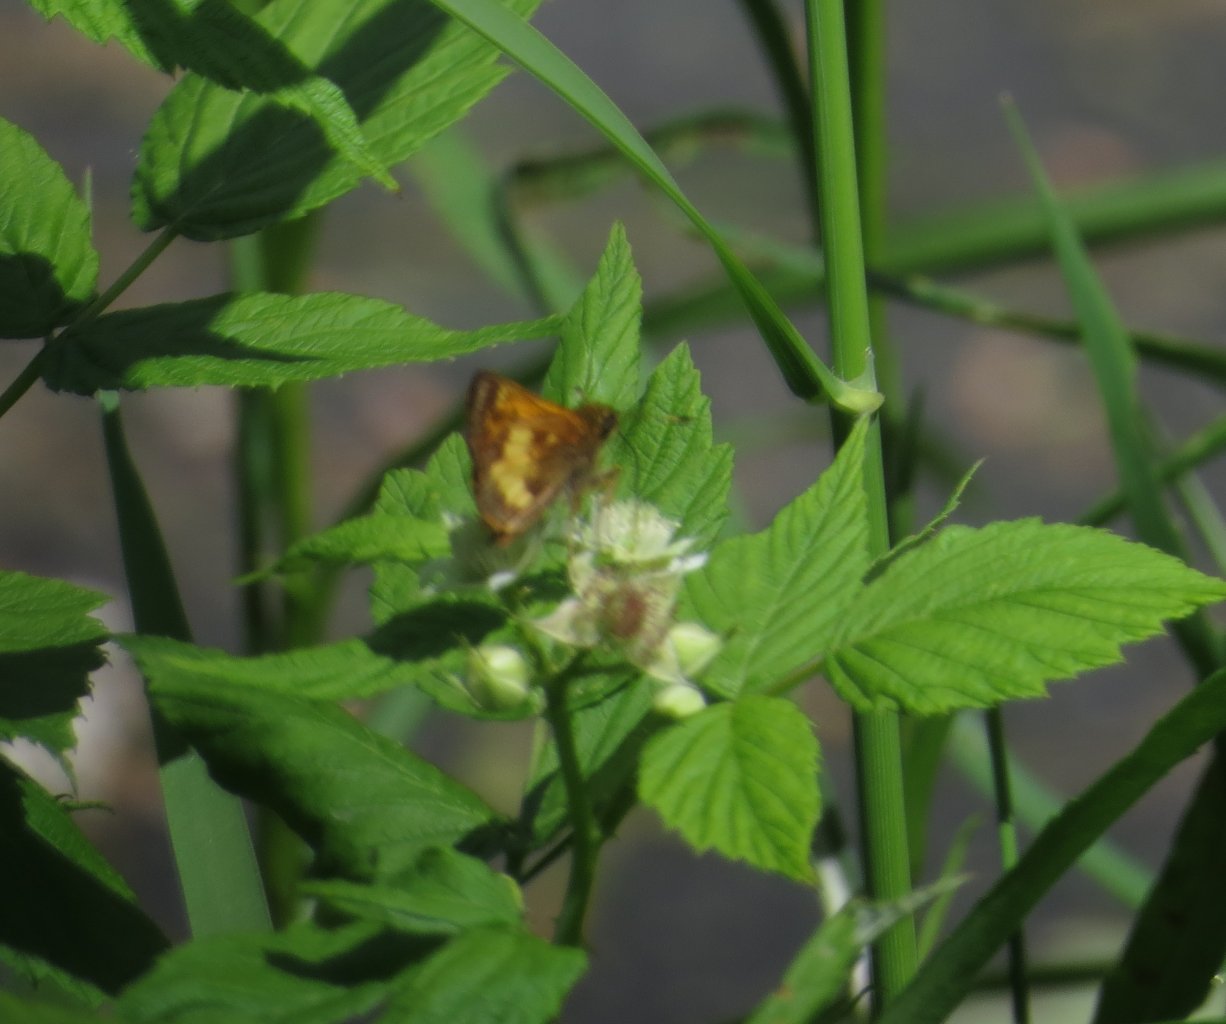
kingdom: Animalia
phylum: Arthropoda
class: Insecta
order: Lepidoptera
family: Hesperiidae
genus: Lon
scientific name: Lon hobomok
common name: Hobomok Skipper
